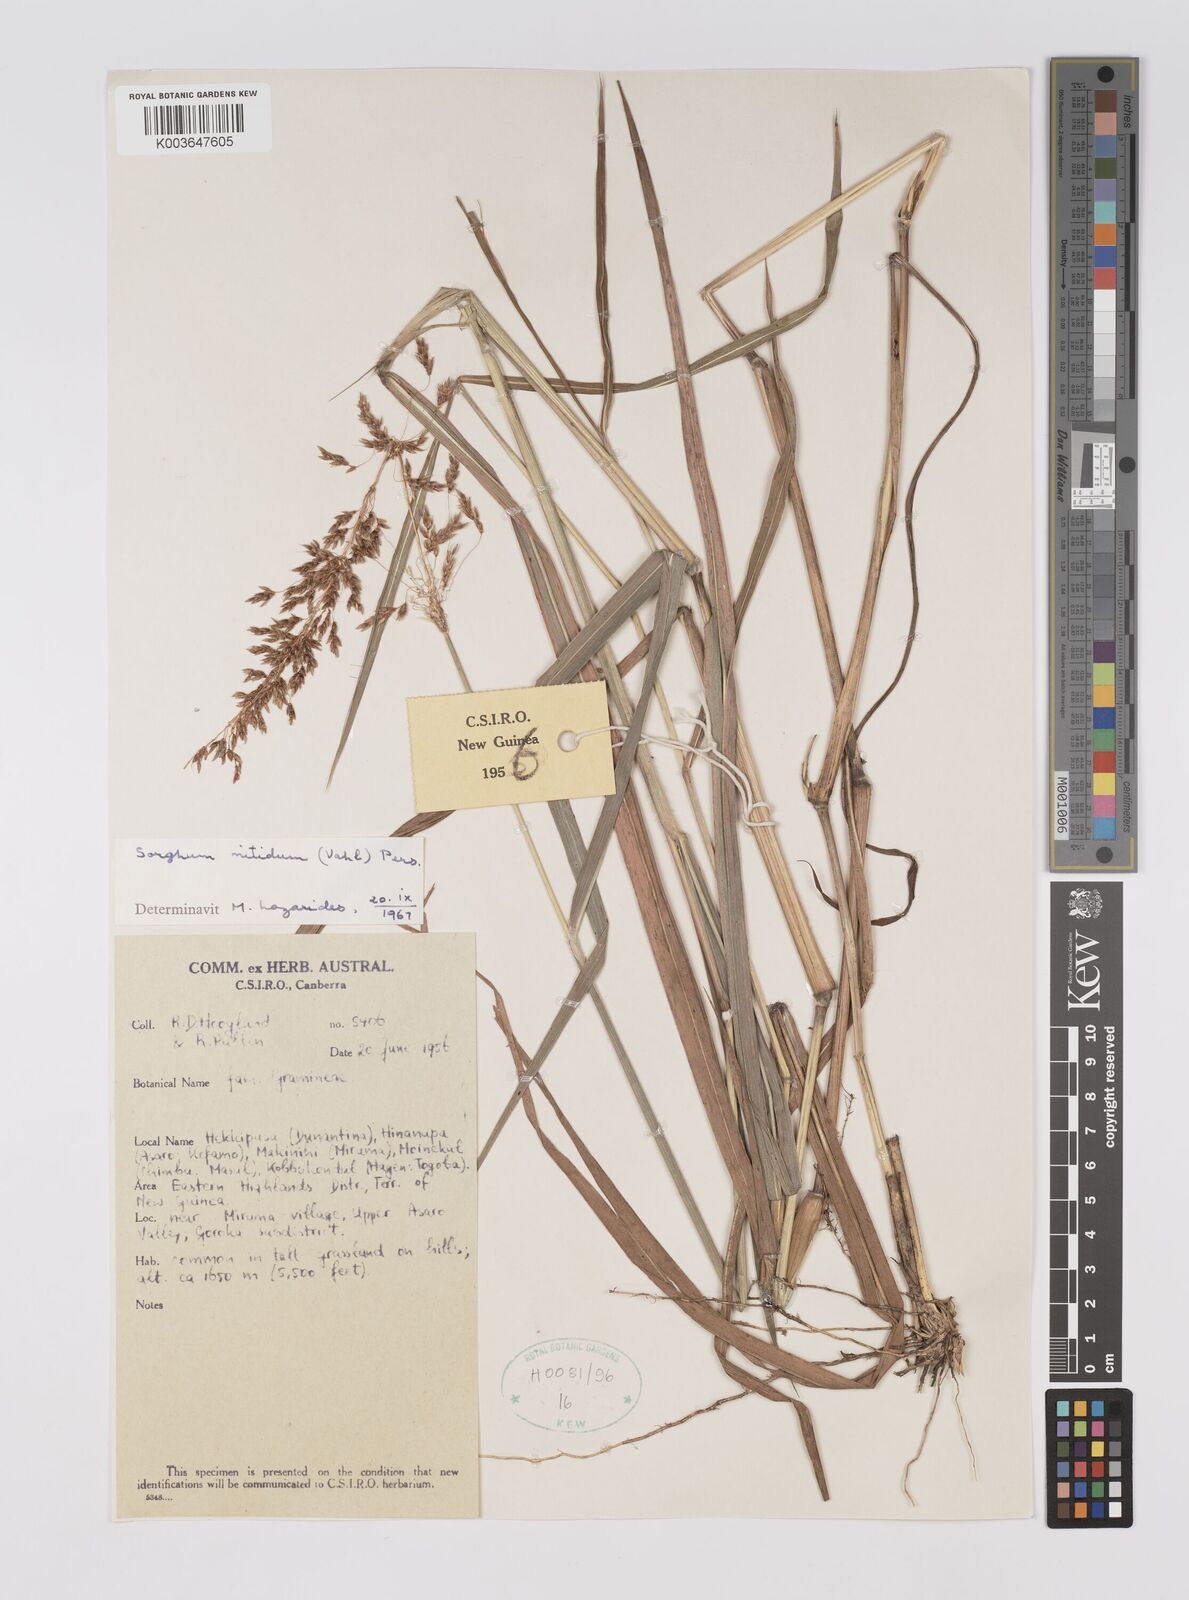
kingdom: Plantae
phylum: Tracheophyta
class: Liliopsida
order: Poales
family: Poaceae
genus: Sorghum
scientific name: Sorghum nitidum
